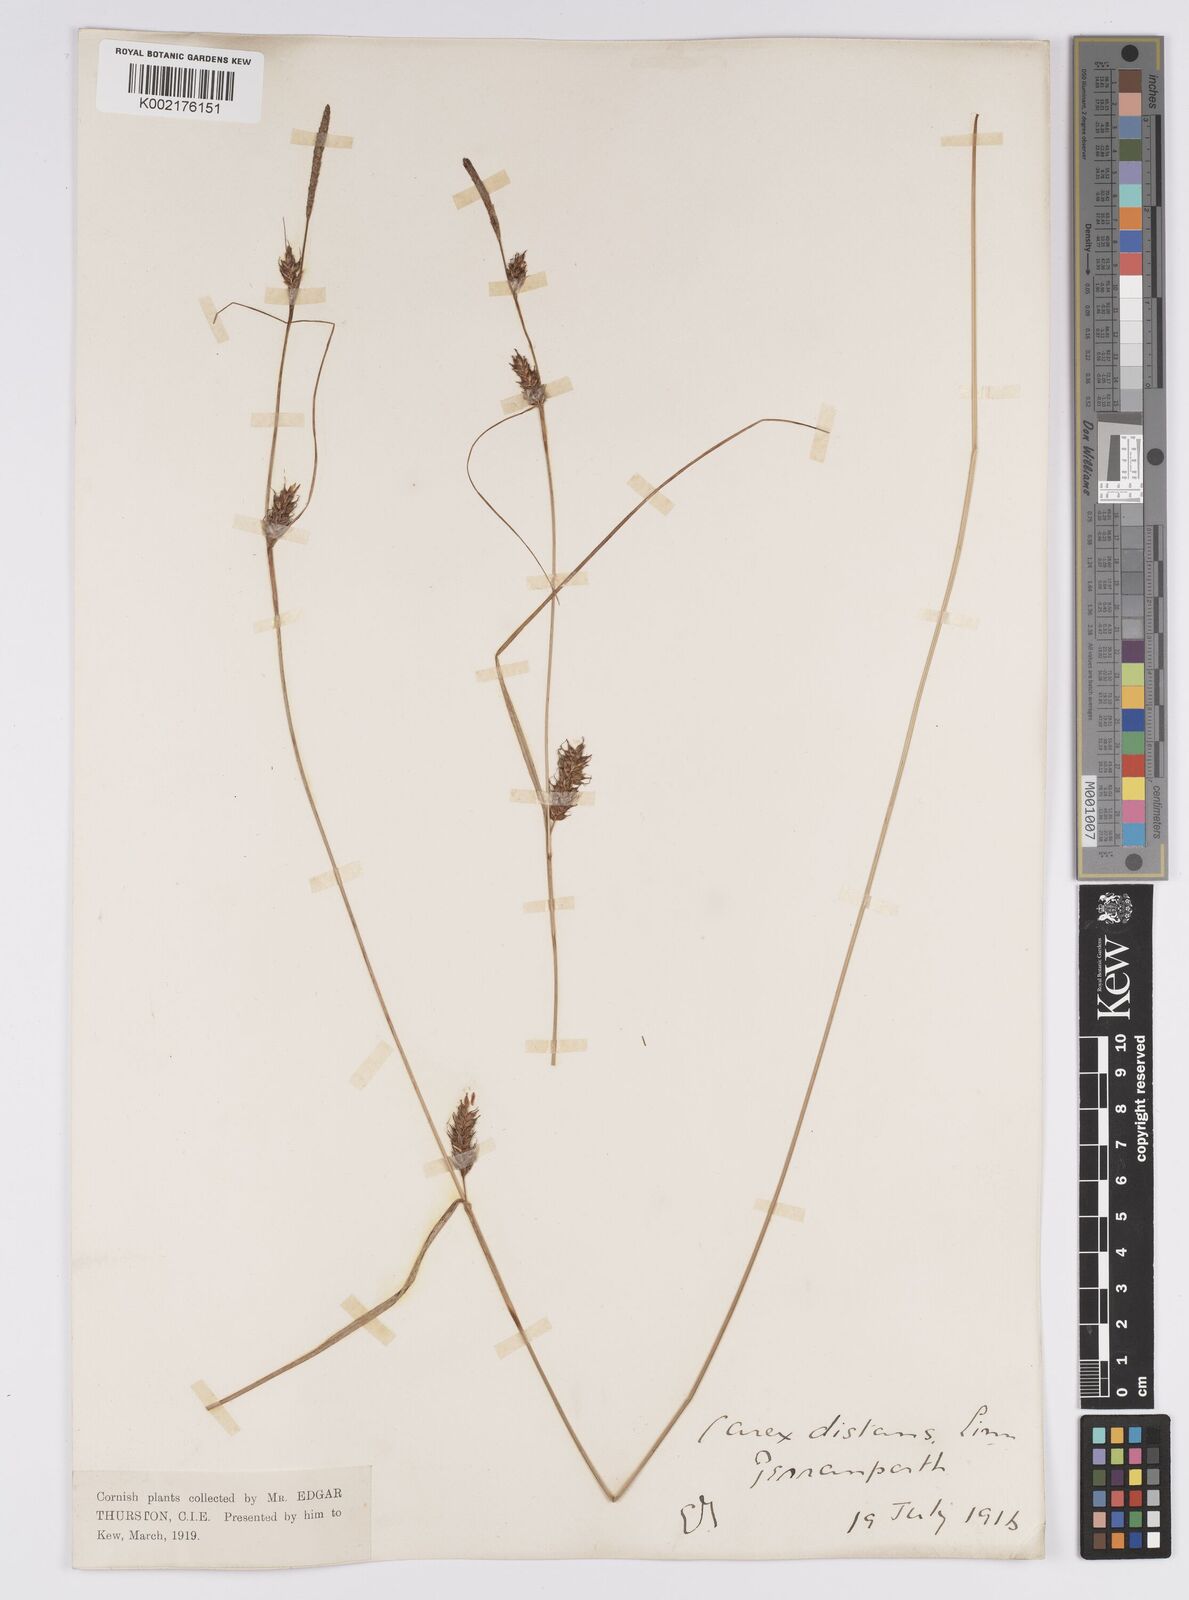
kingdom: Plantae
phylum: Tracheophyta
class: Liliopsida
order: Poales
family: Cyperaceae
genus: Carex
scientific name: Carex distans
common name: Distant sedge
